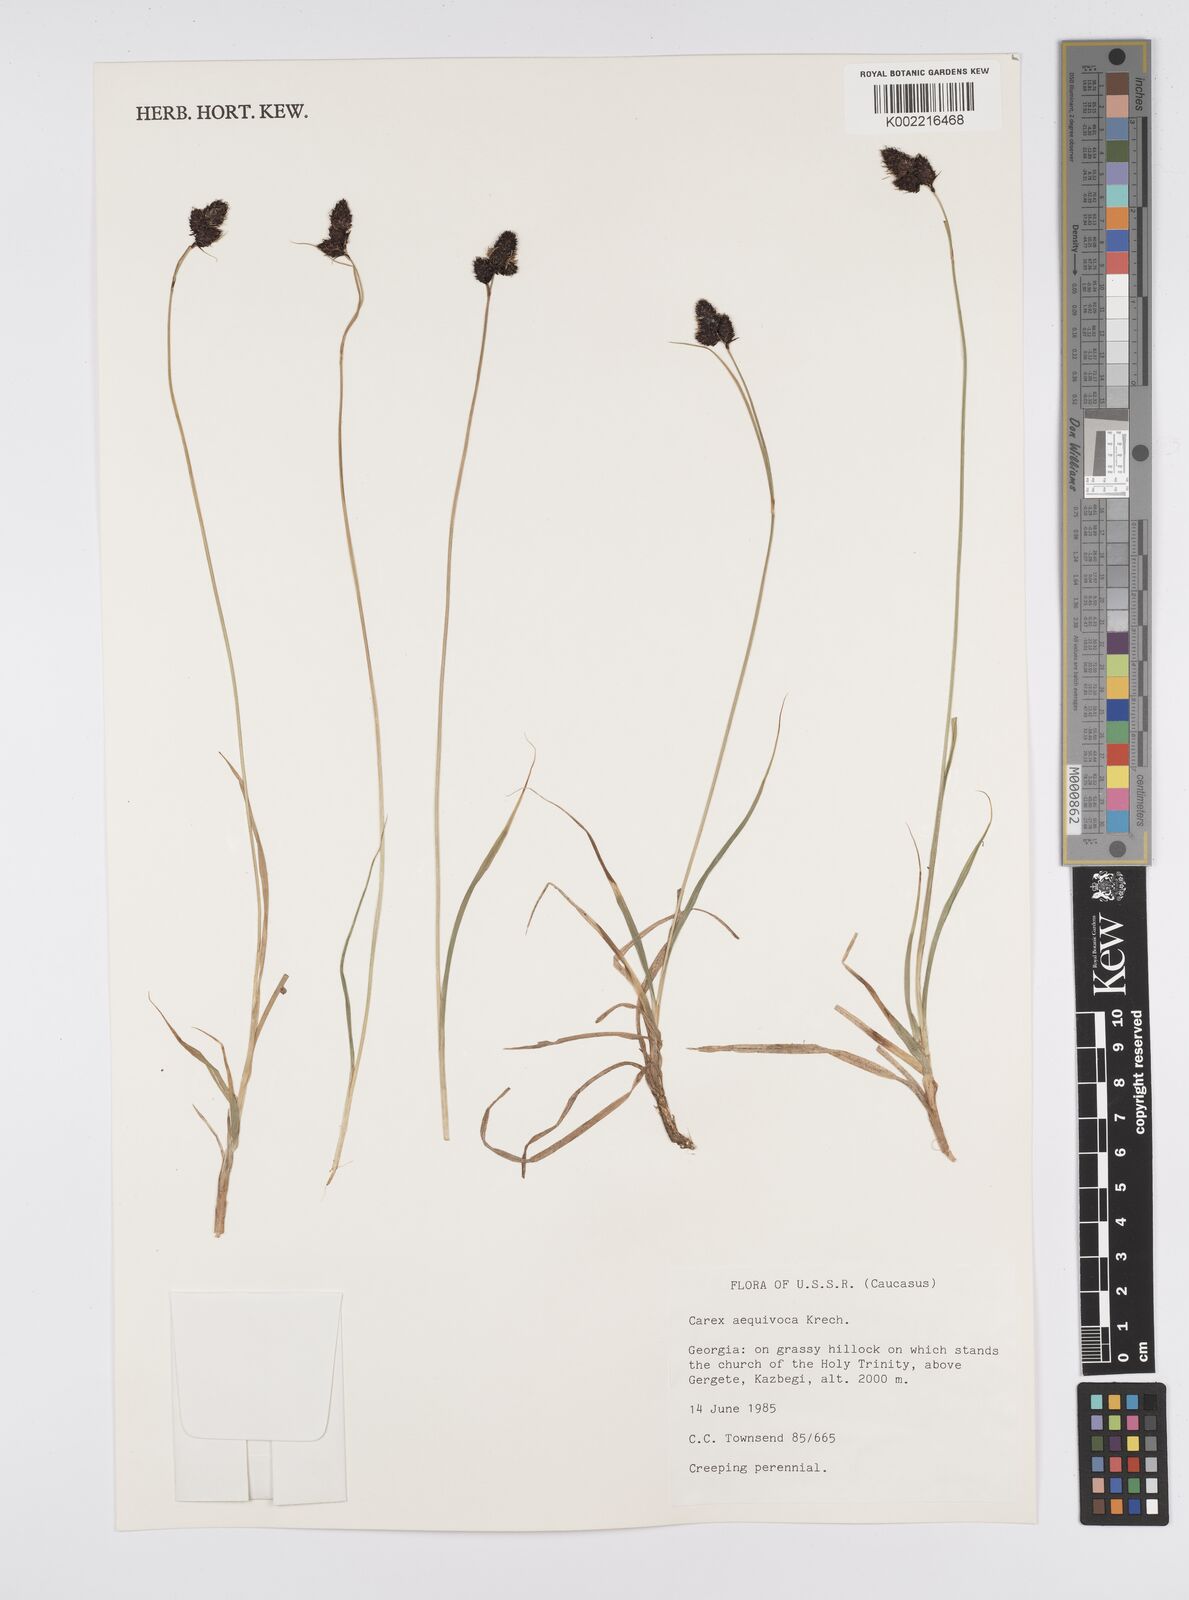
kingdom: Plantae
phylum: Tracheophyta
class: Liliopsida
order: Poales
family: Cyperaceae
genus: Carex
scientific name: Carex atrata
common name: Black alpine sedge
